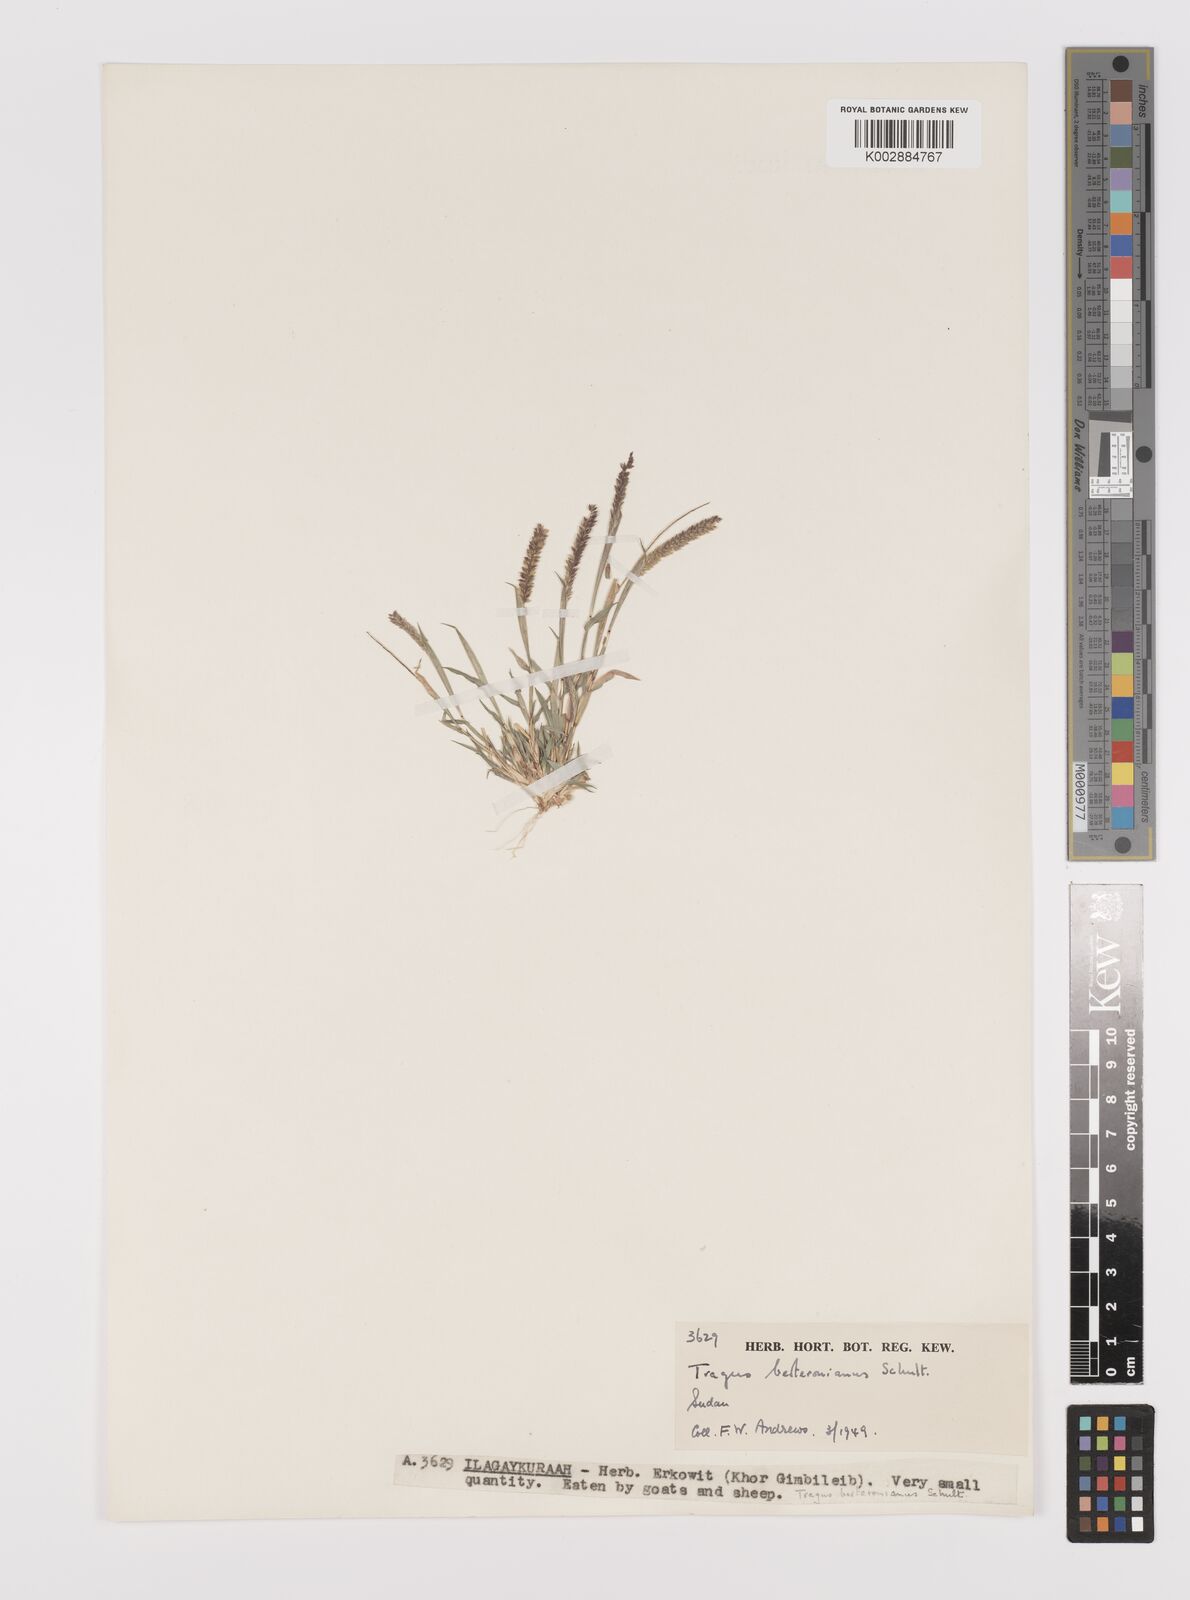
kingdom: Plantae
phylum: Tracheophyta
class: Liliopsida
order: Poales
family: Poaceae
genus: Tragus
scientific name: Tragus berteronianus
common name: African bur-grass
